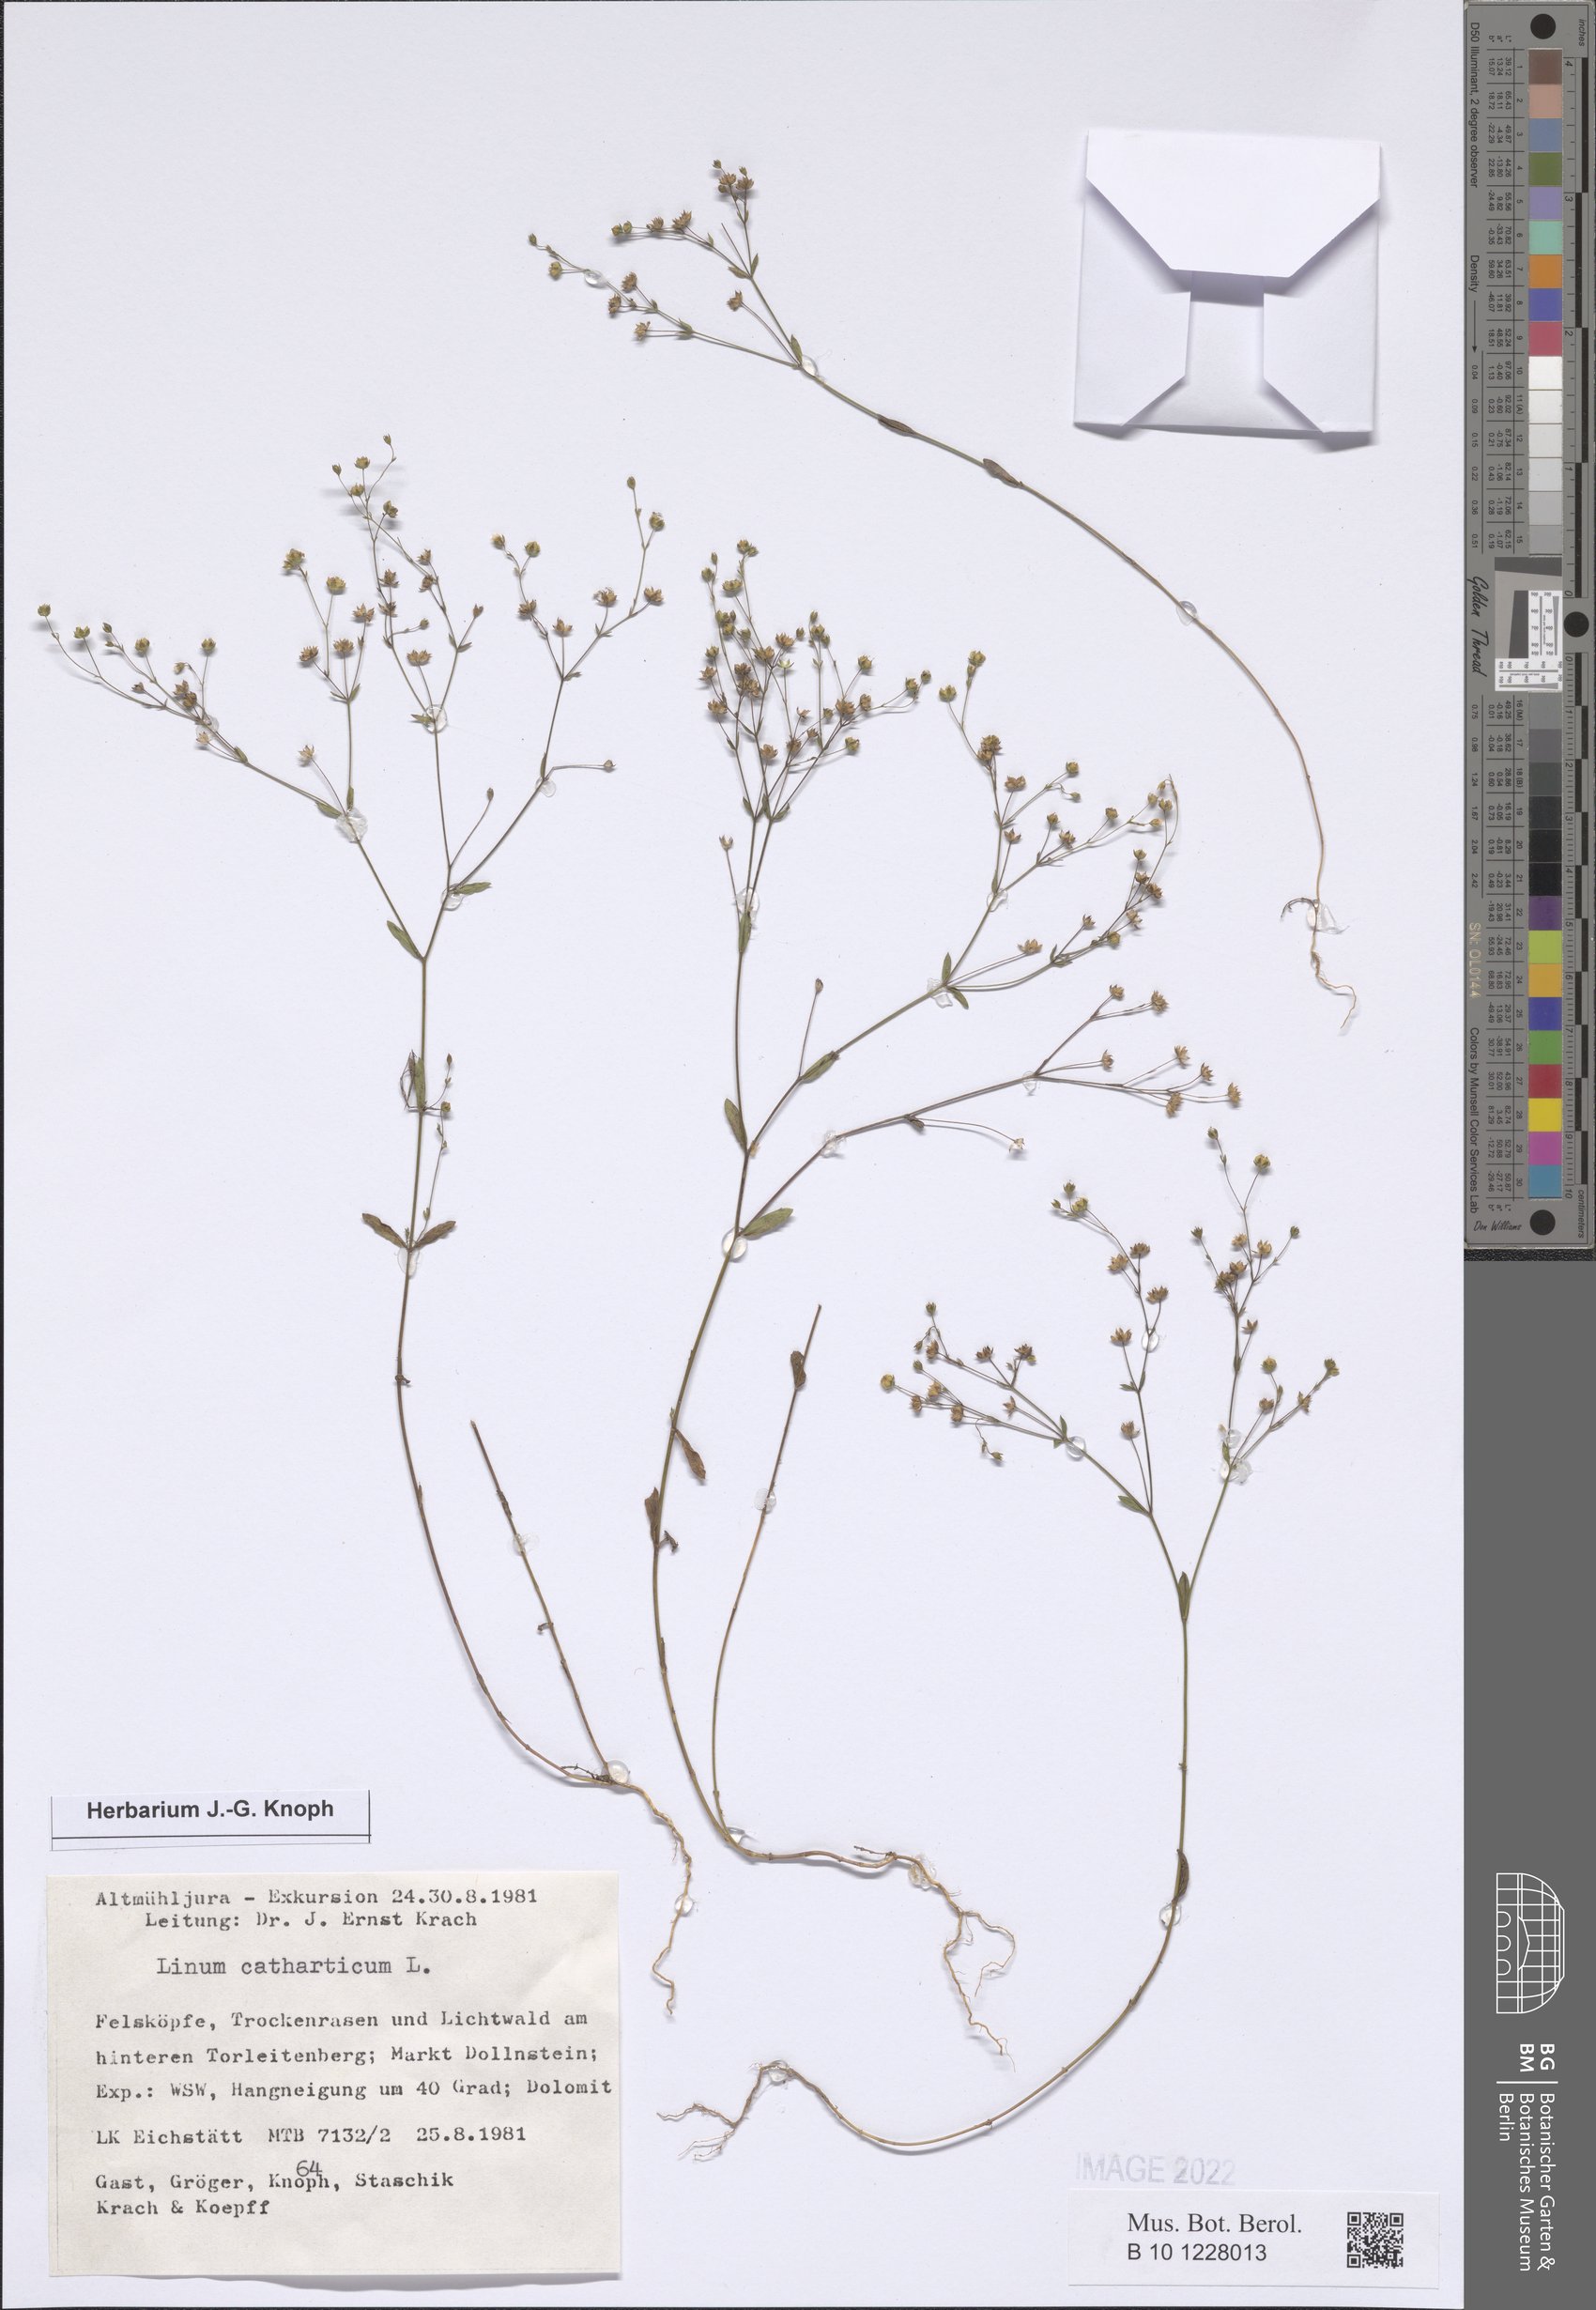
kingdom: Plantae
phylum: Tracheophyta
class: Magnoliopsida
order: Malpighiales
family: Linaceae
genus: Linum
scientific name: Linum catharticum
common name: Fairy flax
